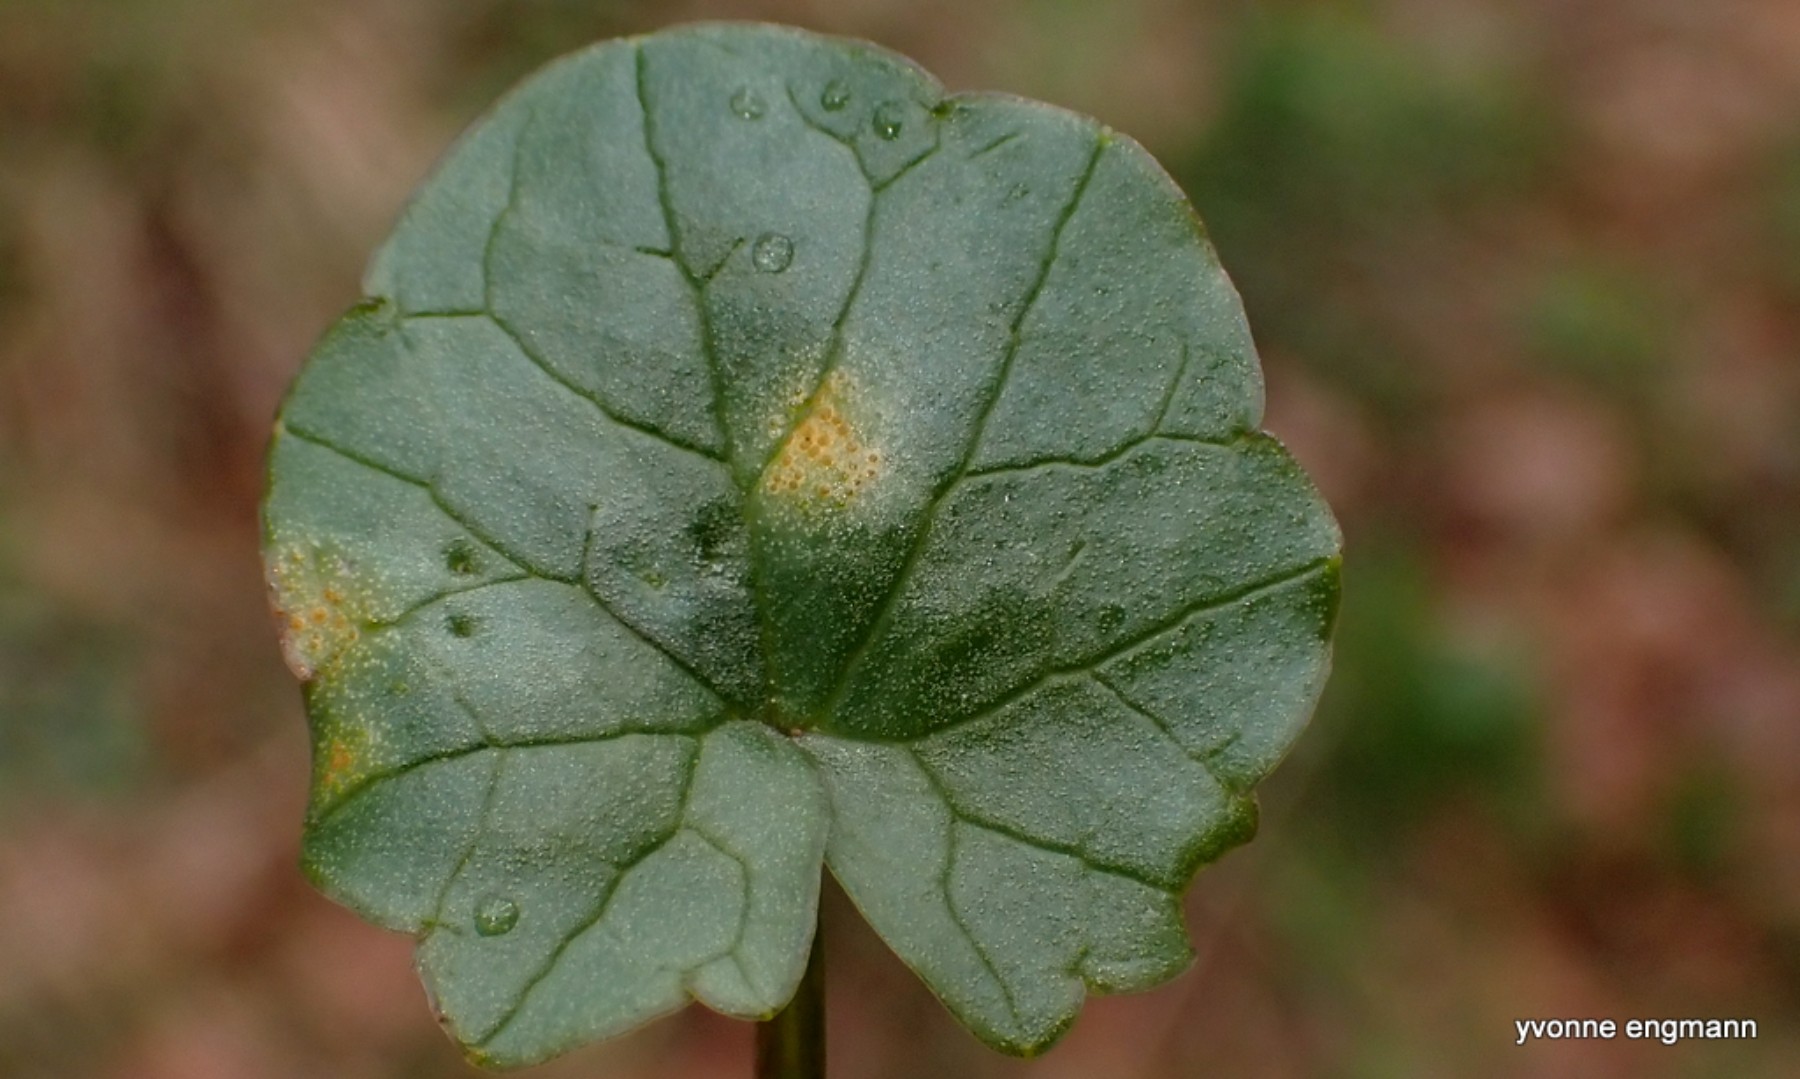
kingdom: Fungi
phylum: Basidiomycota
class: Pucciniomycetes
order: Pucciniales
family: Pucciniaceae
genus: Uromyces
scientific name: Uromyces dactylidis
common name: ranunkel-encellerust
